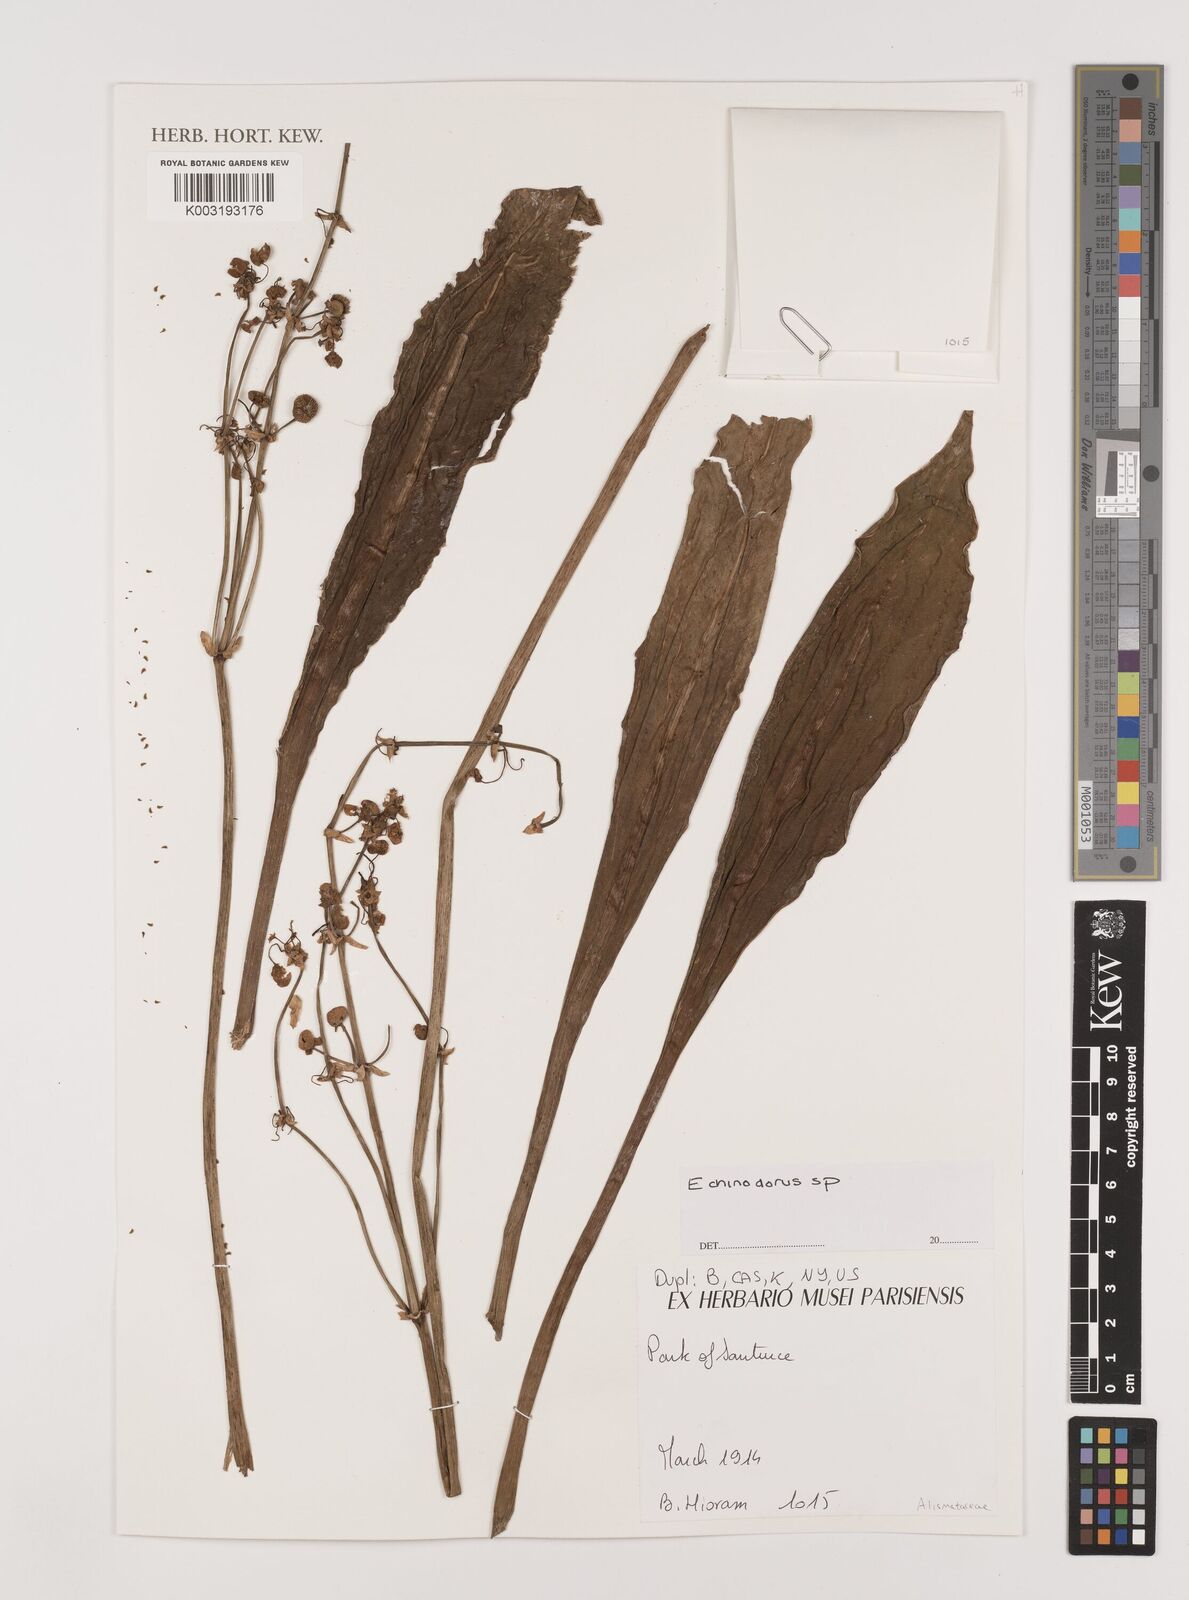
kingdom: Plantae
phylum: Tracheophyta
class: Liliopsida
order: Alismatales
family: Alismataceae
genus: Echinodorus
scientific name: Echinodorus
